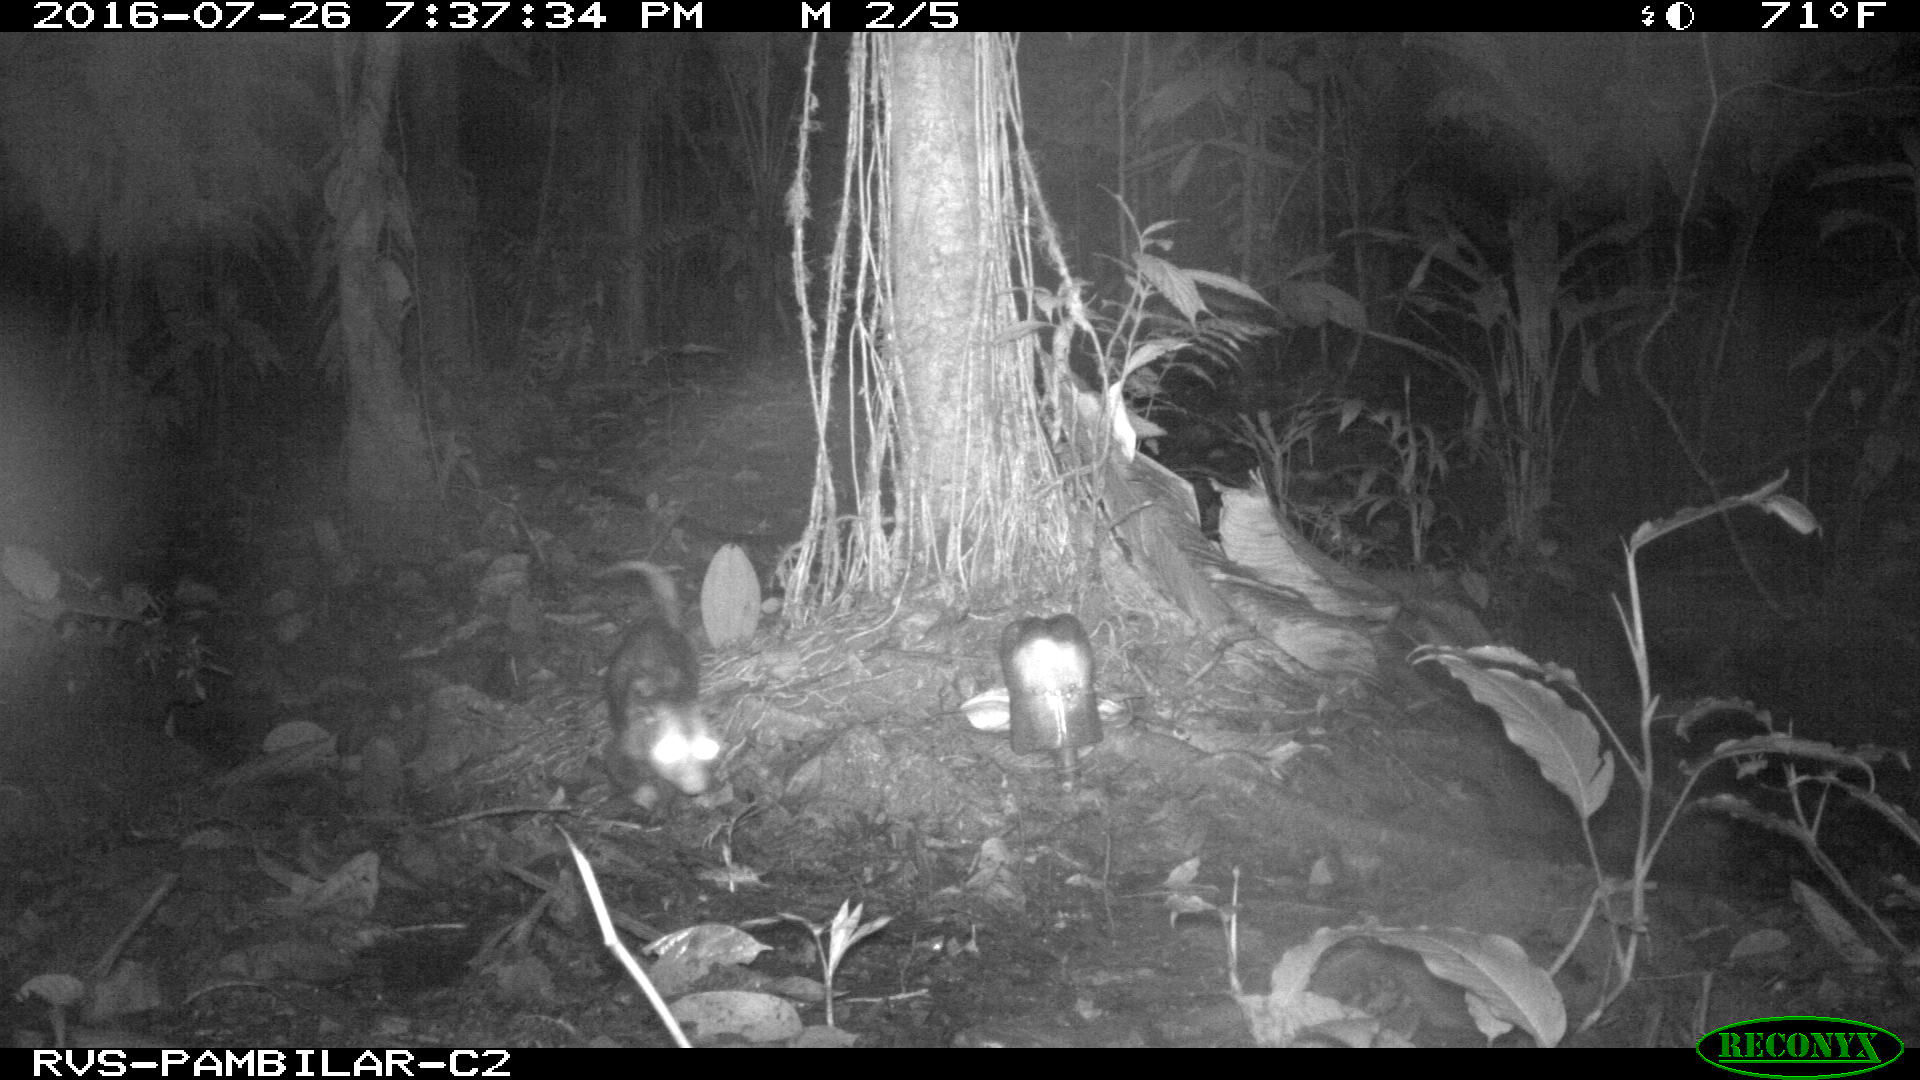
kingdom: Animalia
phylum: Chordata
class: Mammalia
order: Didelphimorphia
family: Didelphidae
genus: Didelphis
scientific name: Didelphis marsupialis
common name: Common opossum
